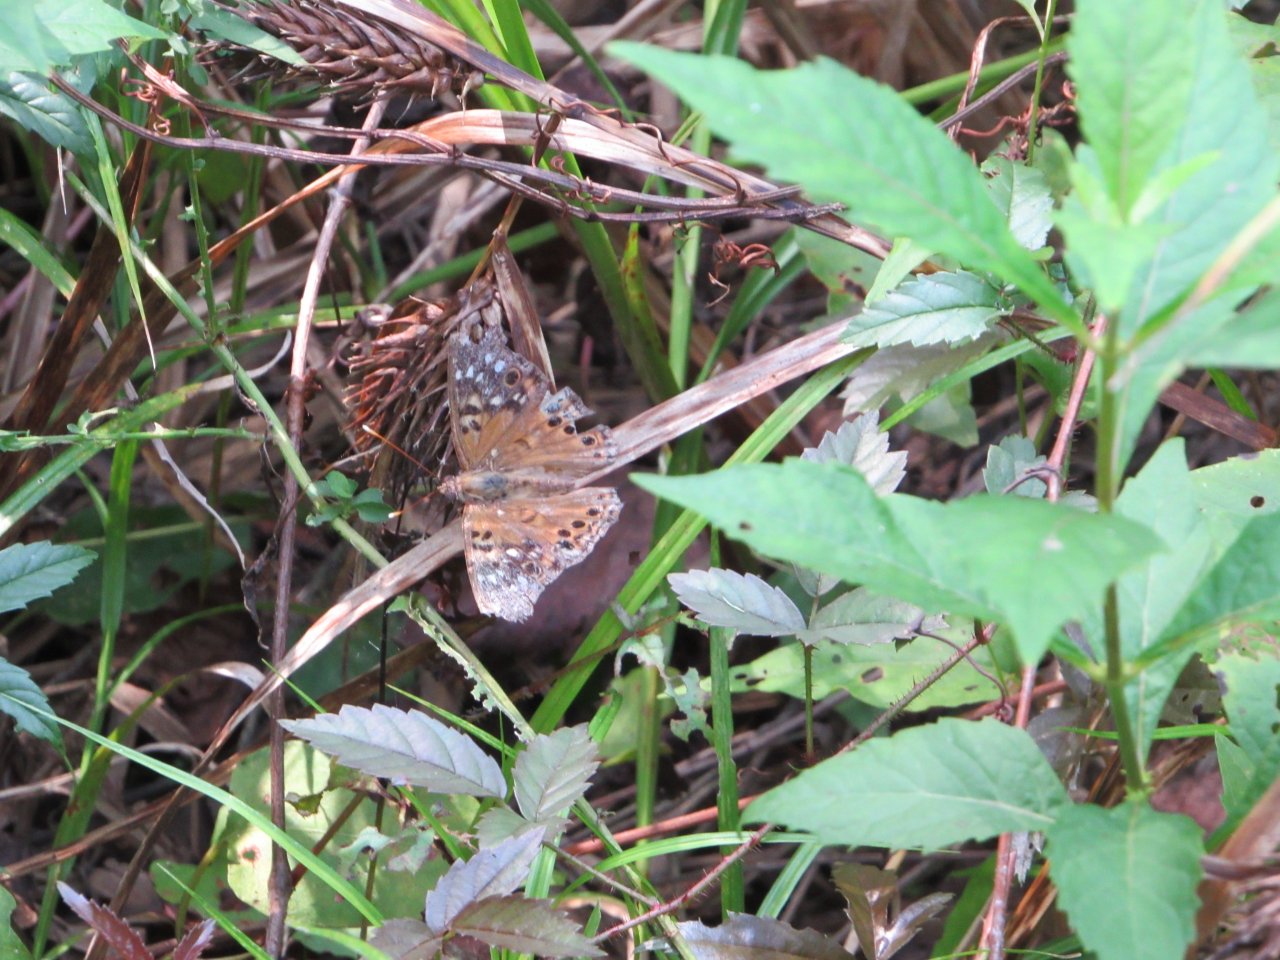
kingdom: Animalia
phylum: Arthropoda
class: Insecta
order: Lepidoptera
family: Nymphalidae
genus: Asterocampa
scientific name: Asterocampa celtis
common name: Hackberry Emperor
